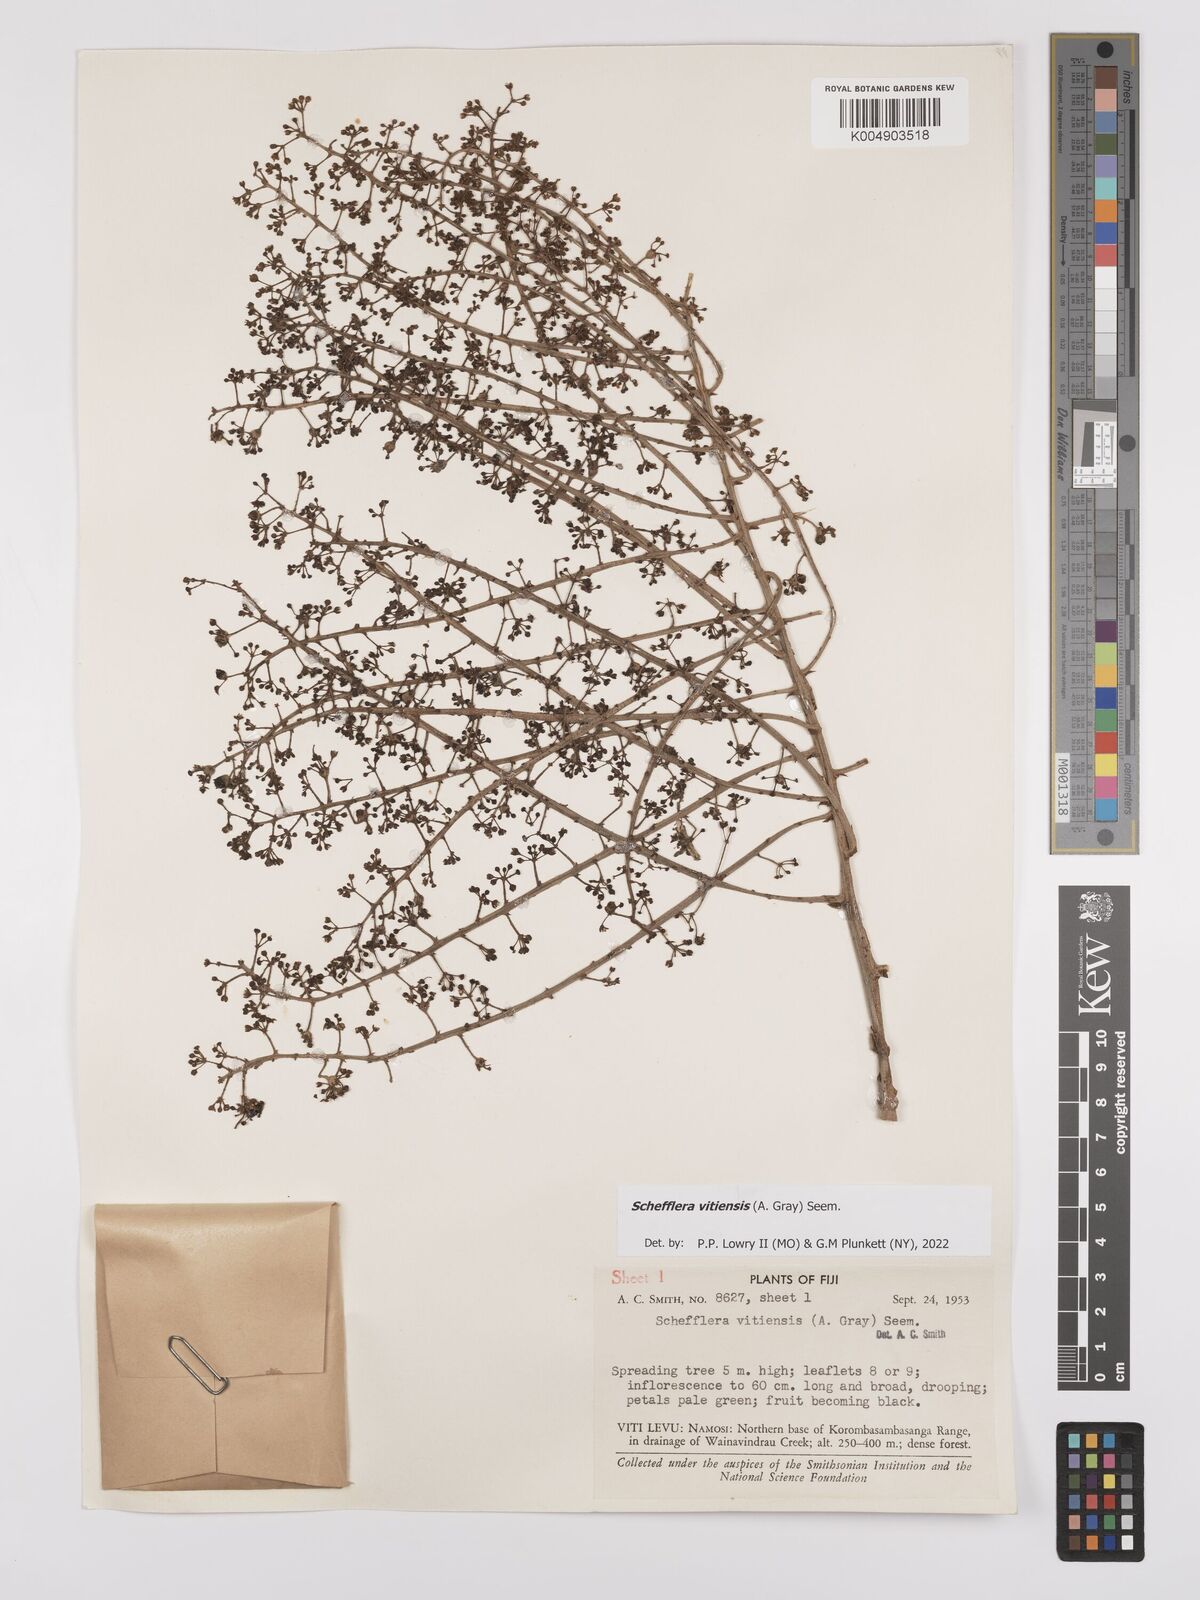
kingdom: Plantae
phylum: Tracheophyta
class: Magnoliopsida
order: Apiales
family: Araliaceae
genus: Schefflera
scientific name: Schefflera vitiensis
